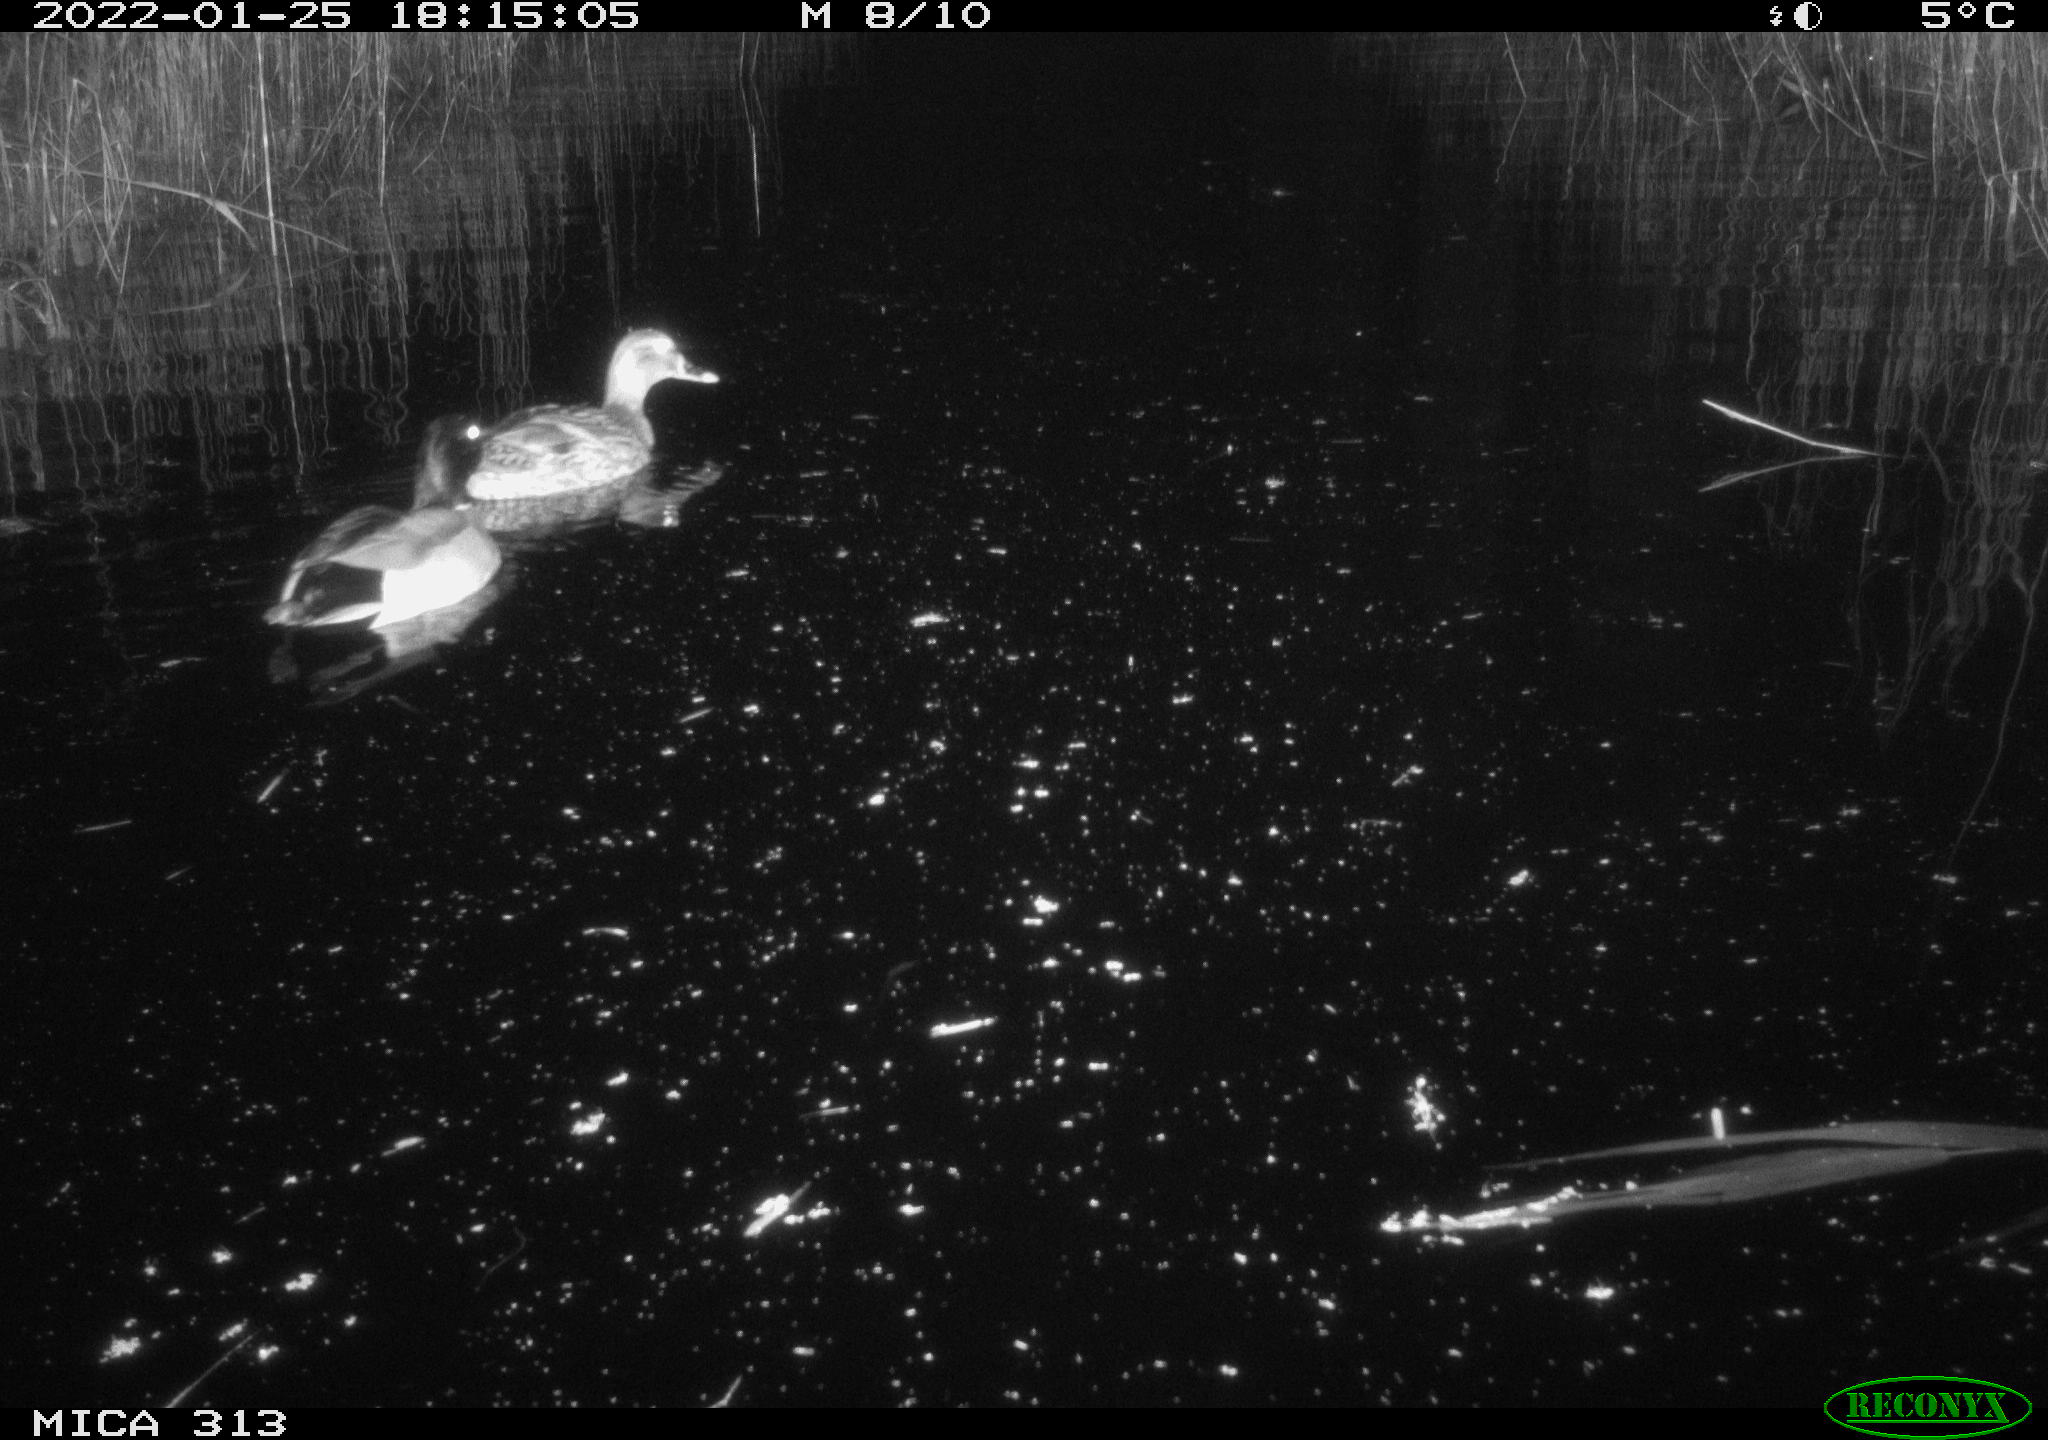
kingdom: Animalia
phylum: Chordata
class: Aves
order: Anseriformes
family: Anatidae
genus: Anas
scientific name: Anas
